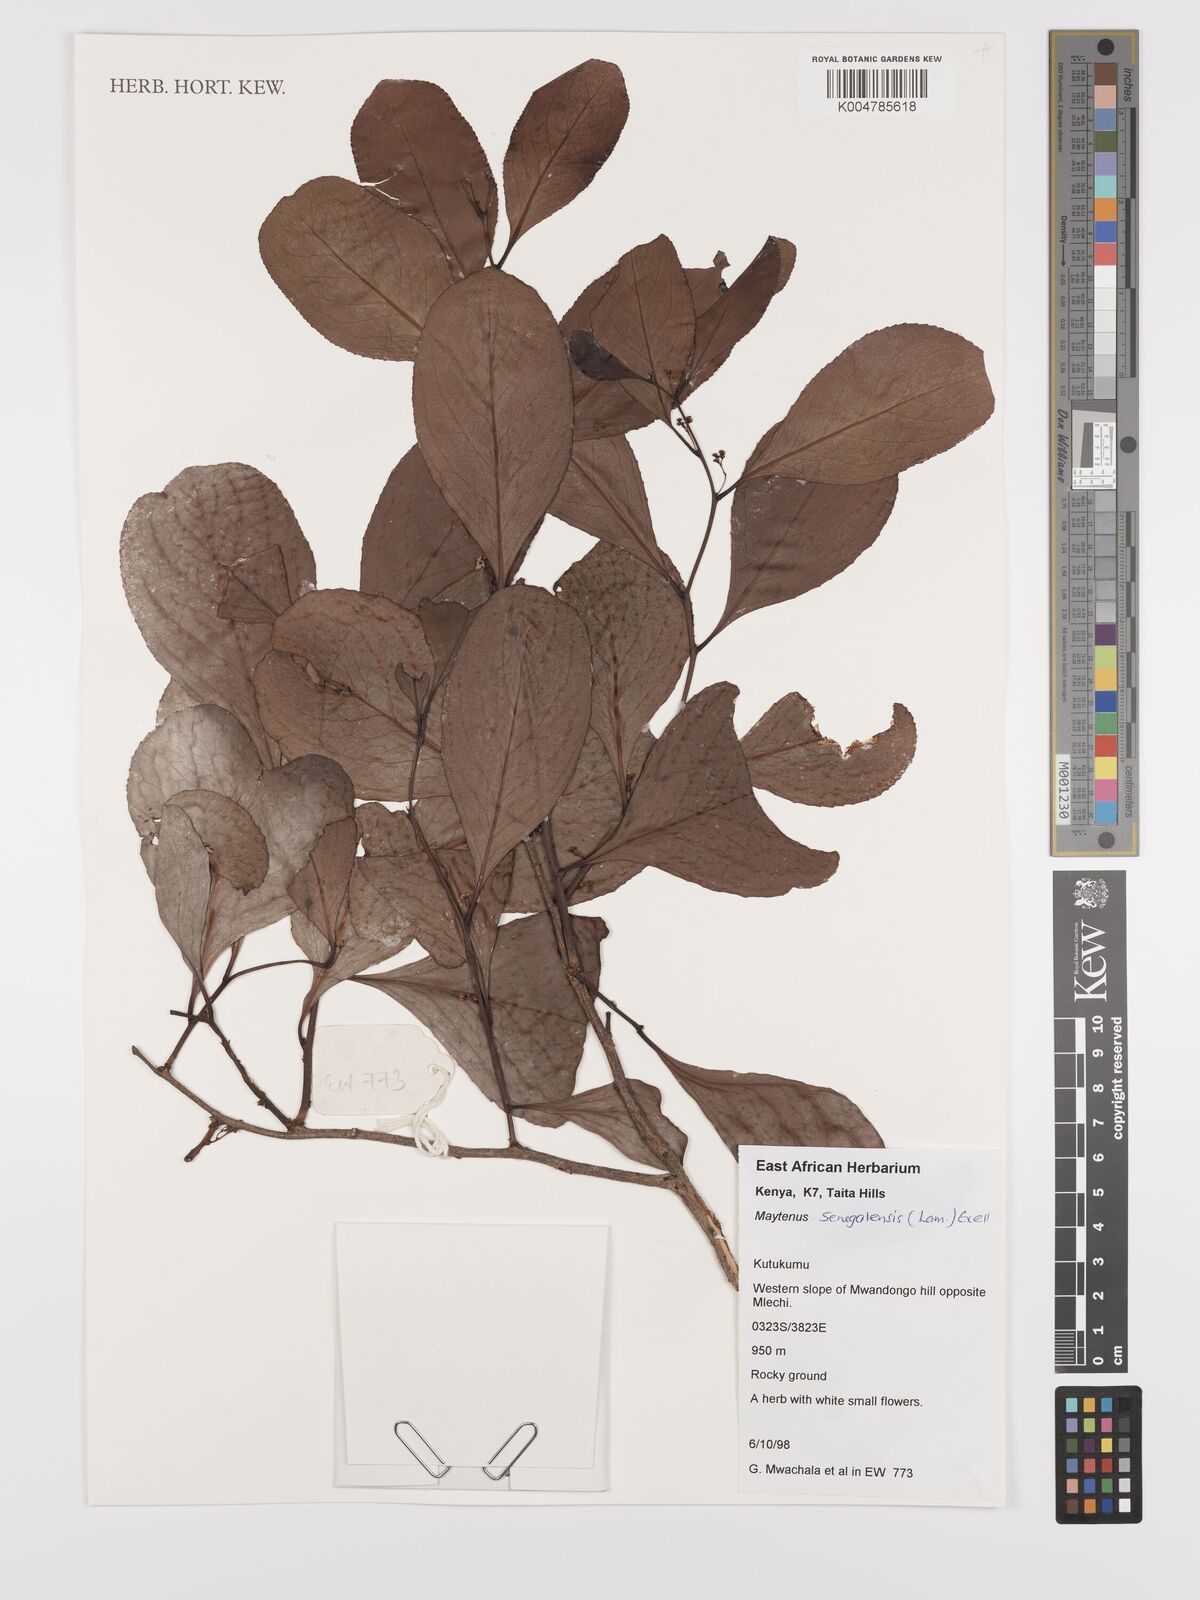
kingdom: Plantae
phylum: Tracheophyta
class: Magnoliopsida
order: Celastrales
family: Celastraceae
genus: Gymnosporia
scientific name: Gymnosporia senegalensis
